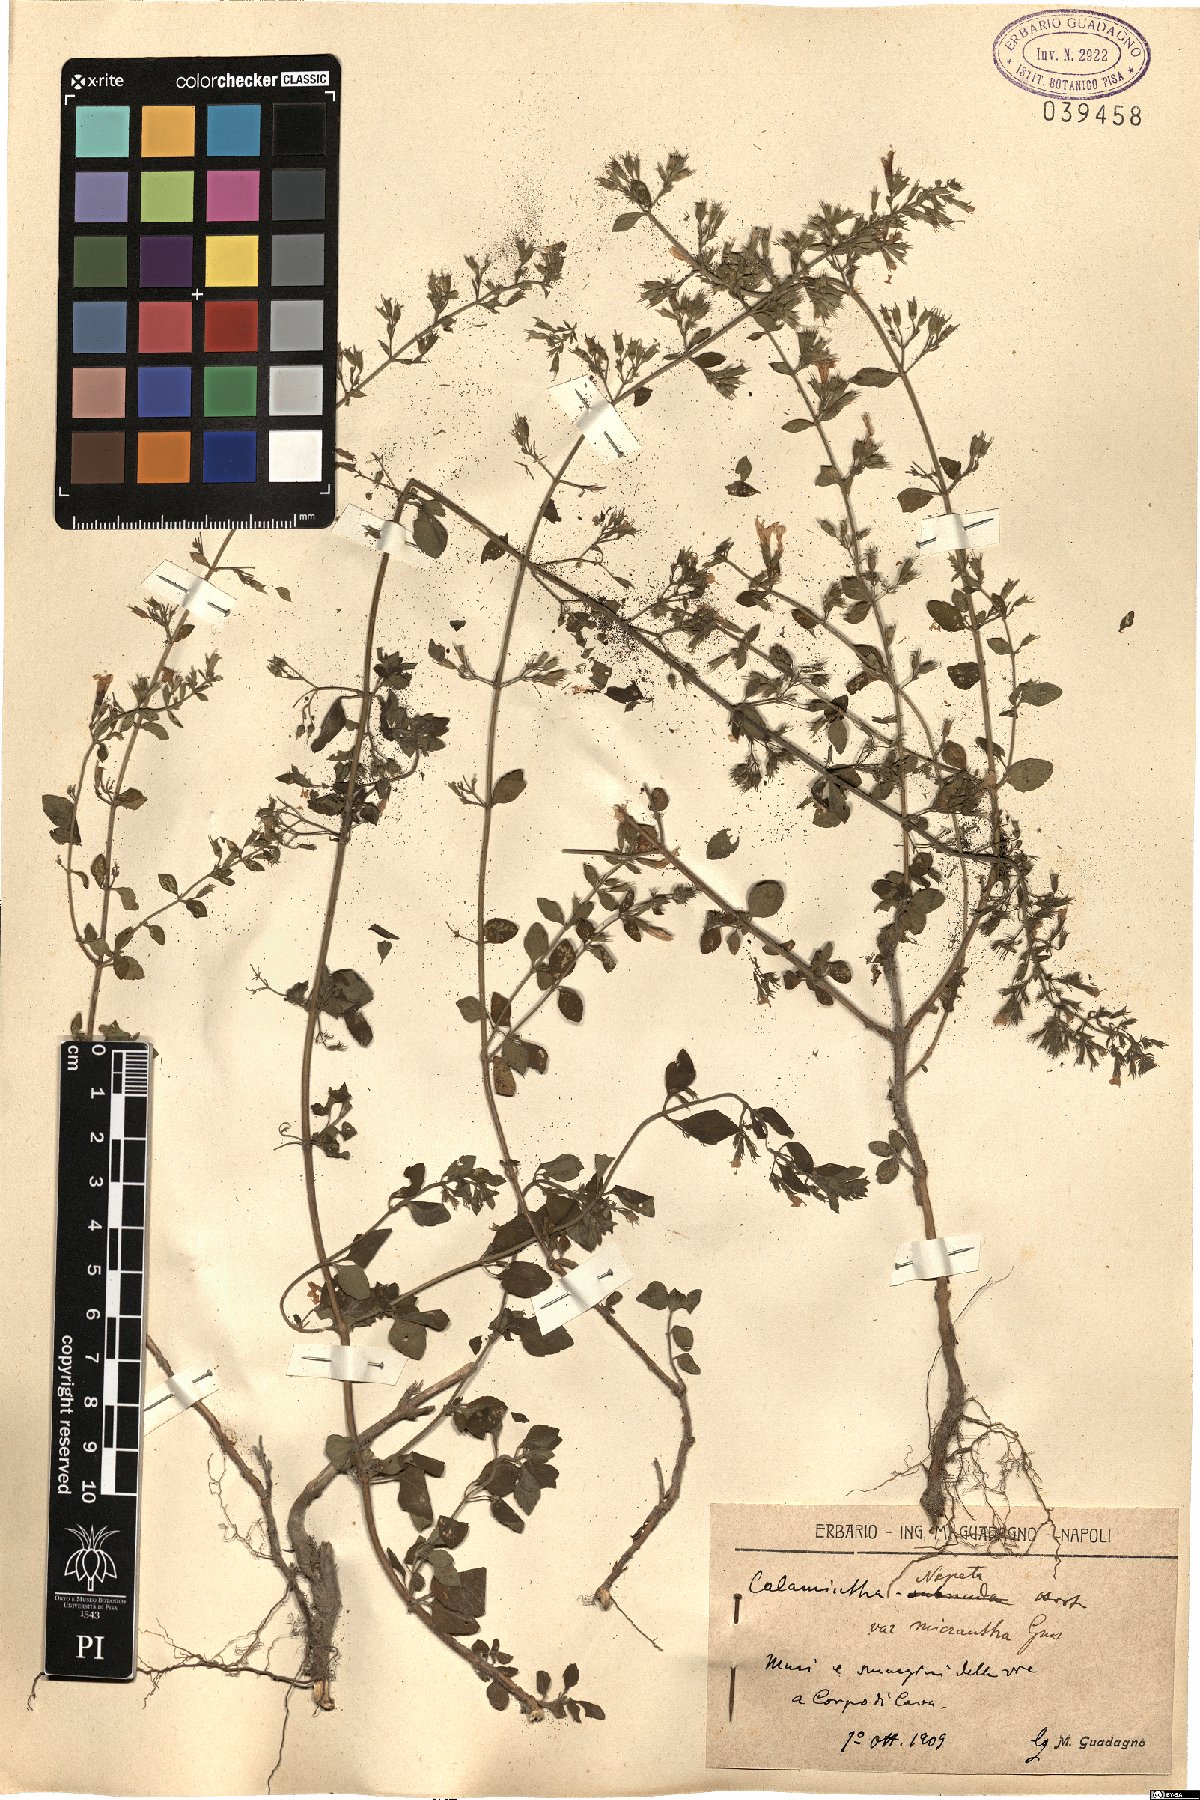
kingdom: Plantae
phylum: Tracheophyta
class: Magnoliopsida
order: Lamiales
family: Lamiaceae
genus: Clinopodium
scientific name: Clinopodium nepeta
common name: Lesser calamint
